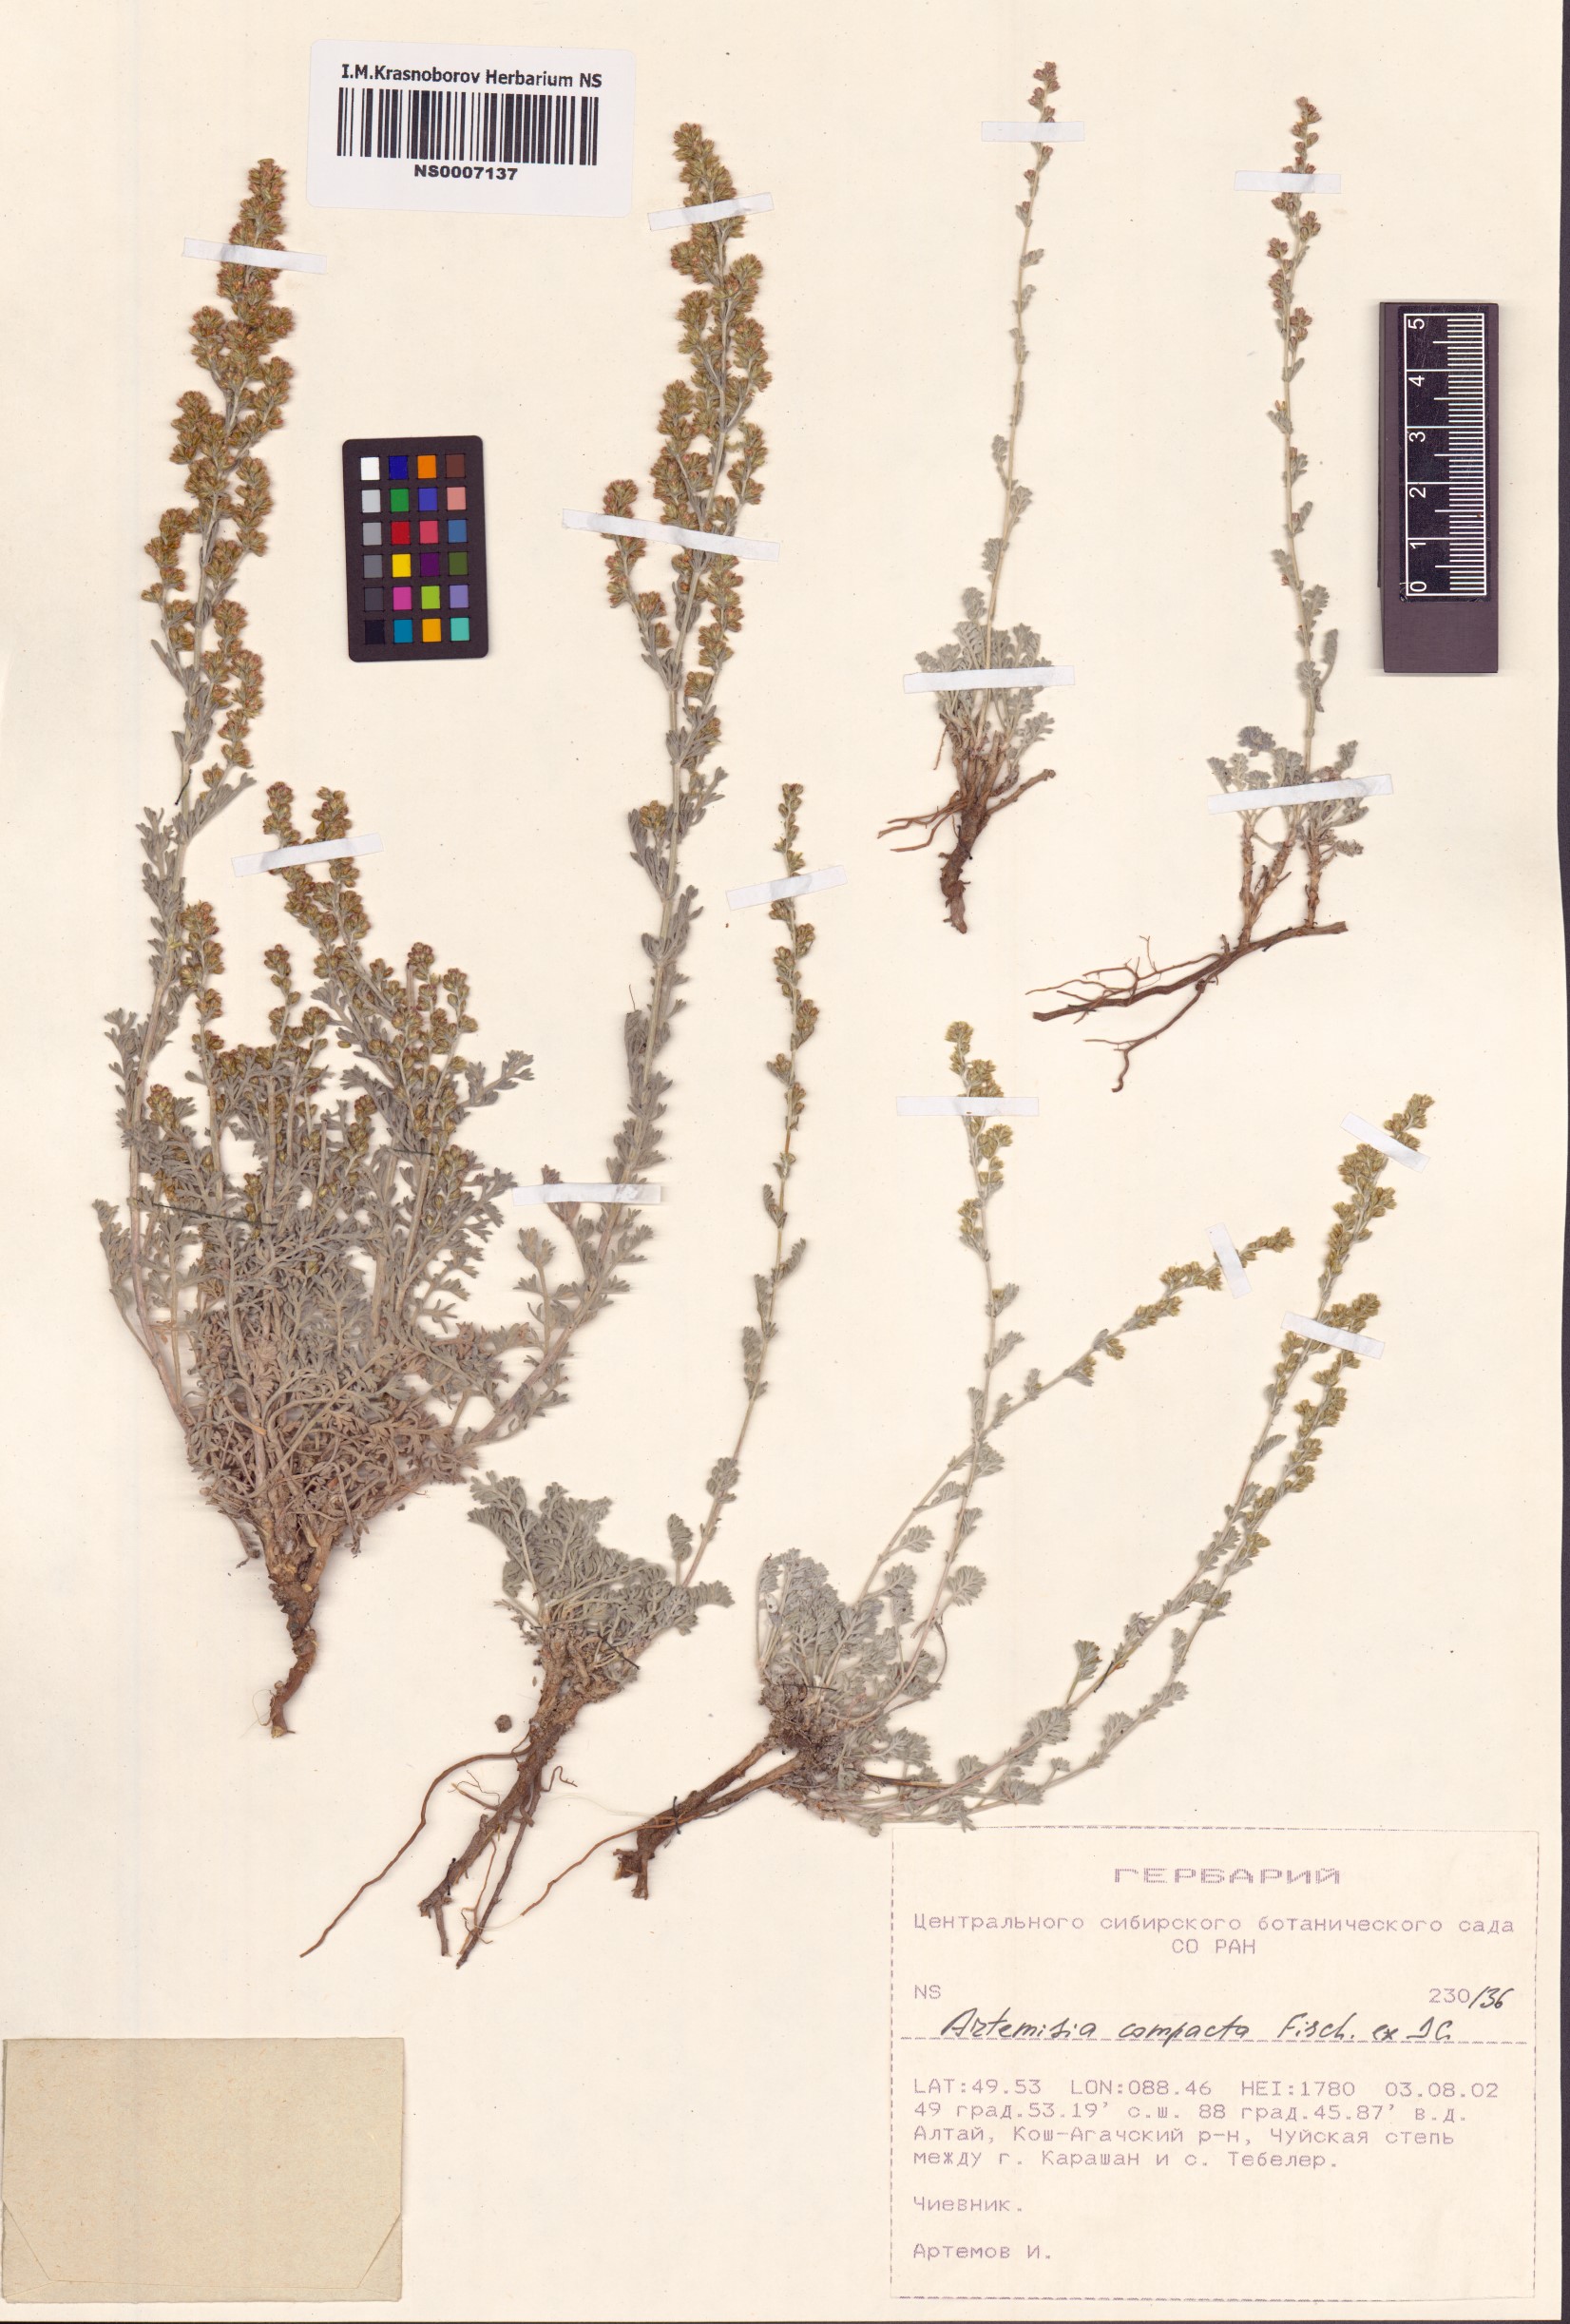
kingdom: Plantae
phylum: Tracheophyta
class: Magnoliopsida
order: Asterales
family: Asteraceae
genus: Artemisia
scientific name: Artemisia compacta
